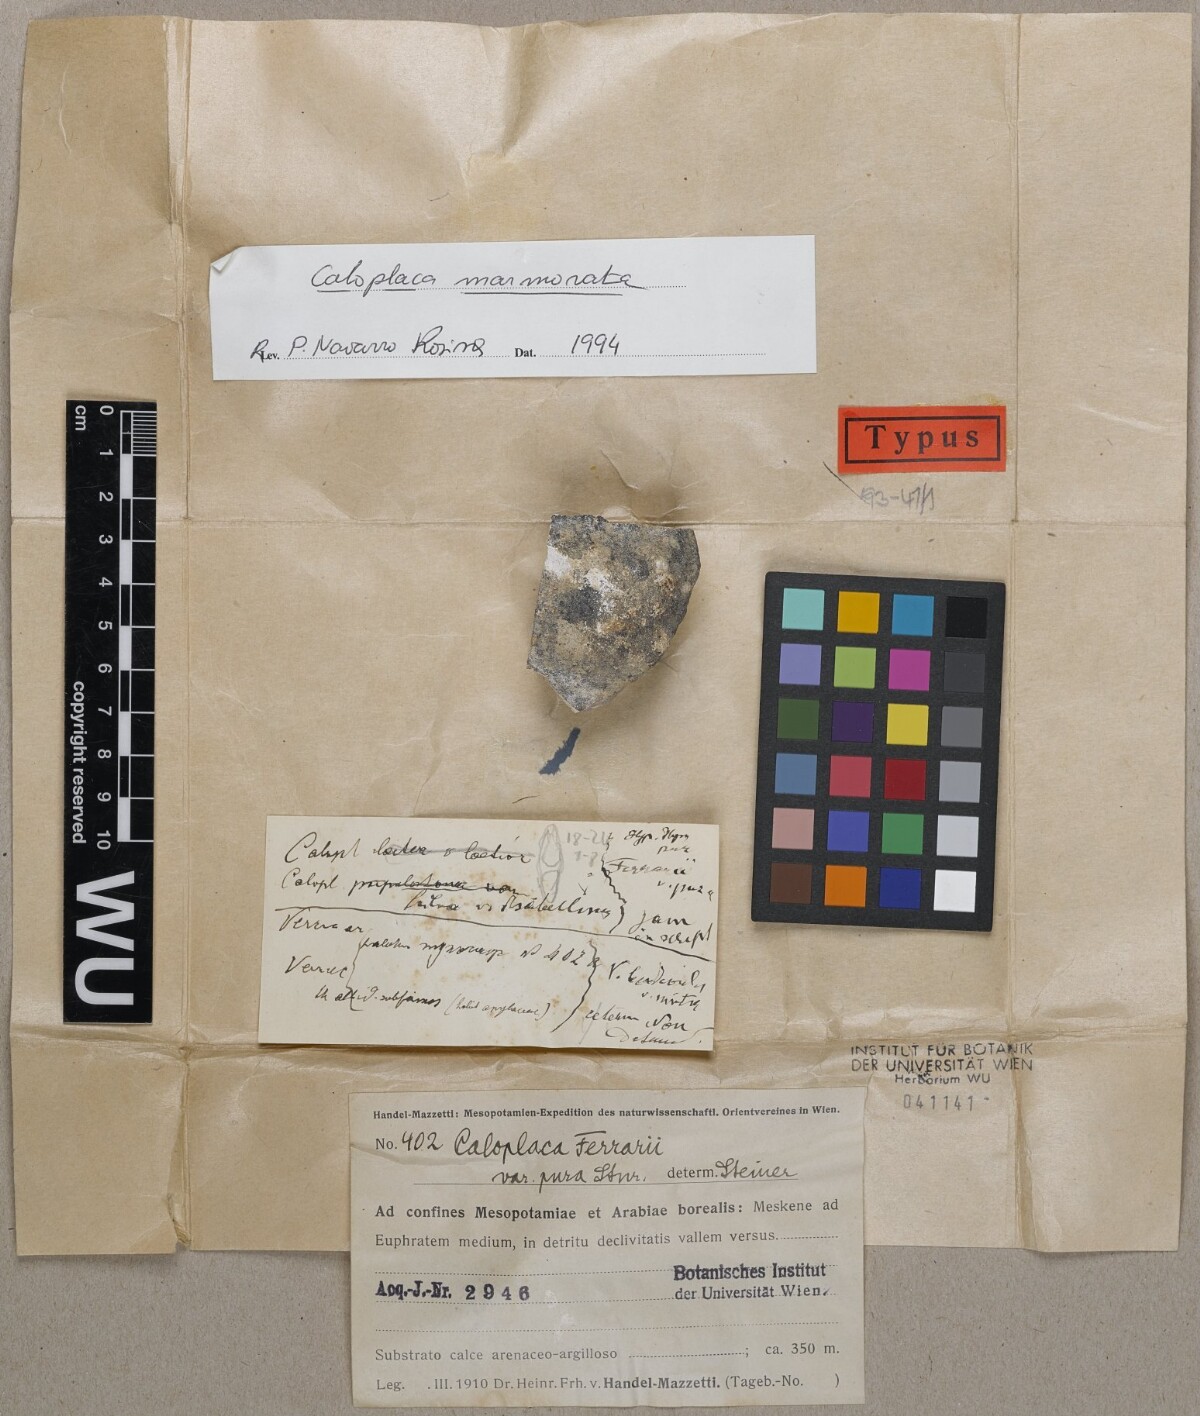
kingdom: Fungi
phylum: Ascomycota
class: Lecanoromycetes
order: Teloschistales
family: Teloschistaceae
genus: Xanthocarpia
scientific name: Xanthocarpia ferrarii
